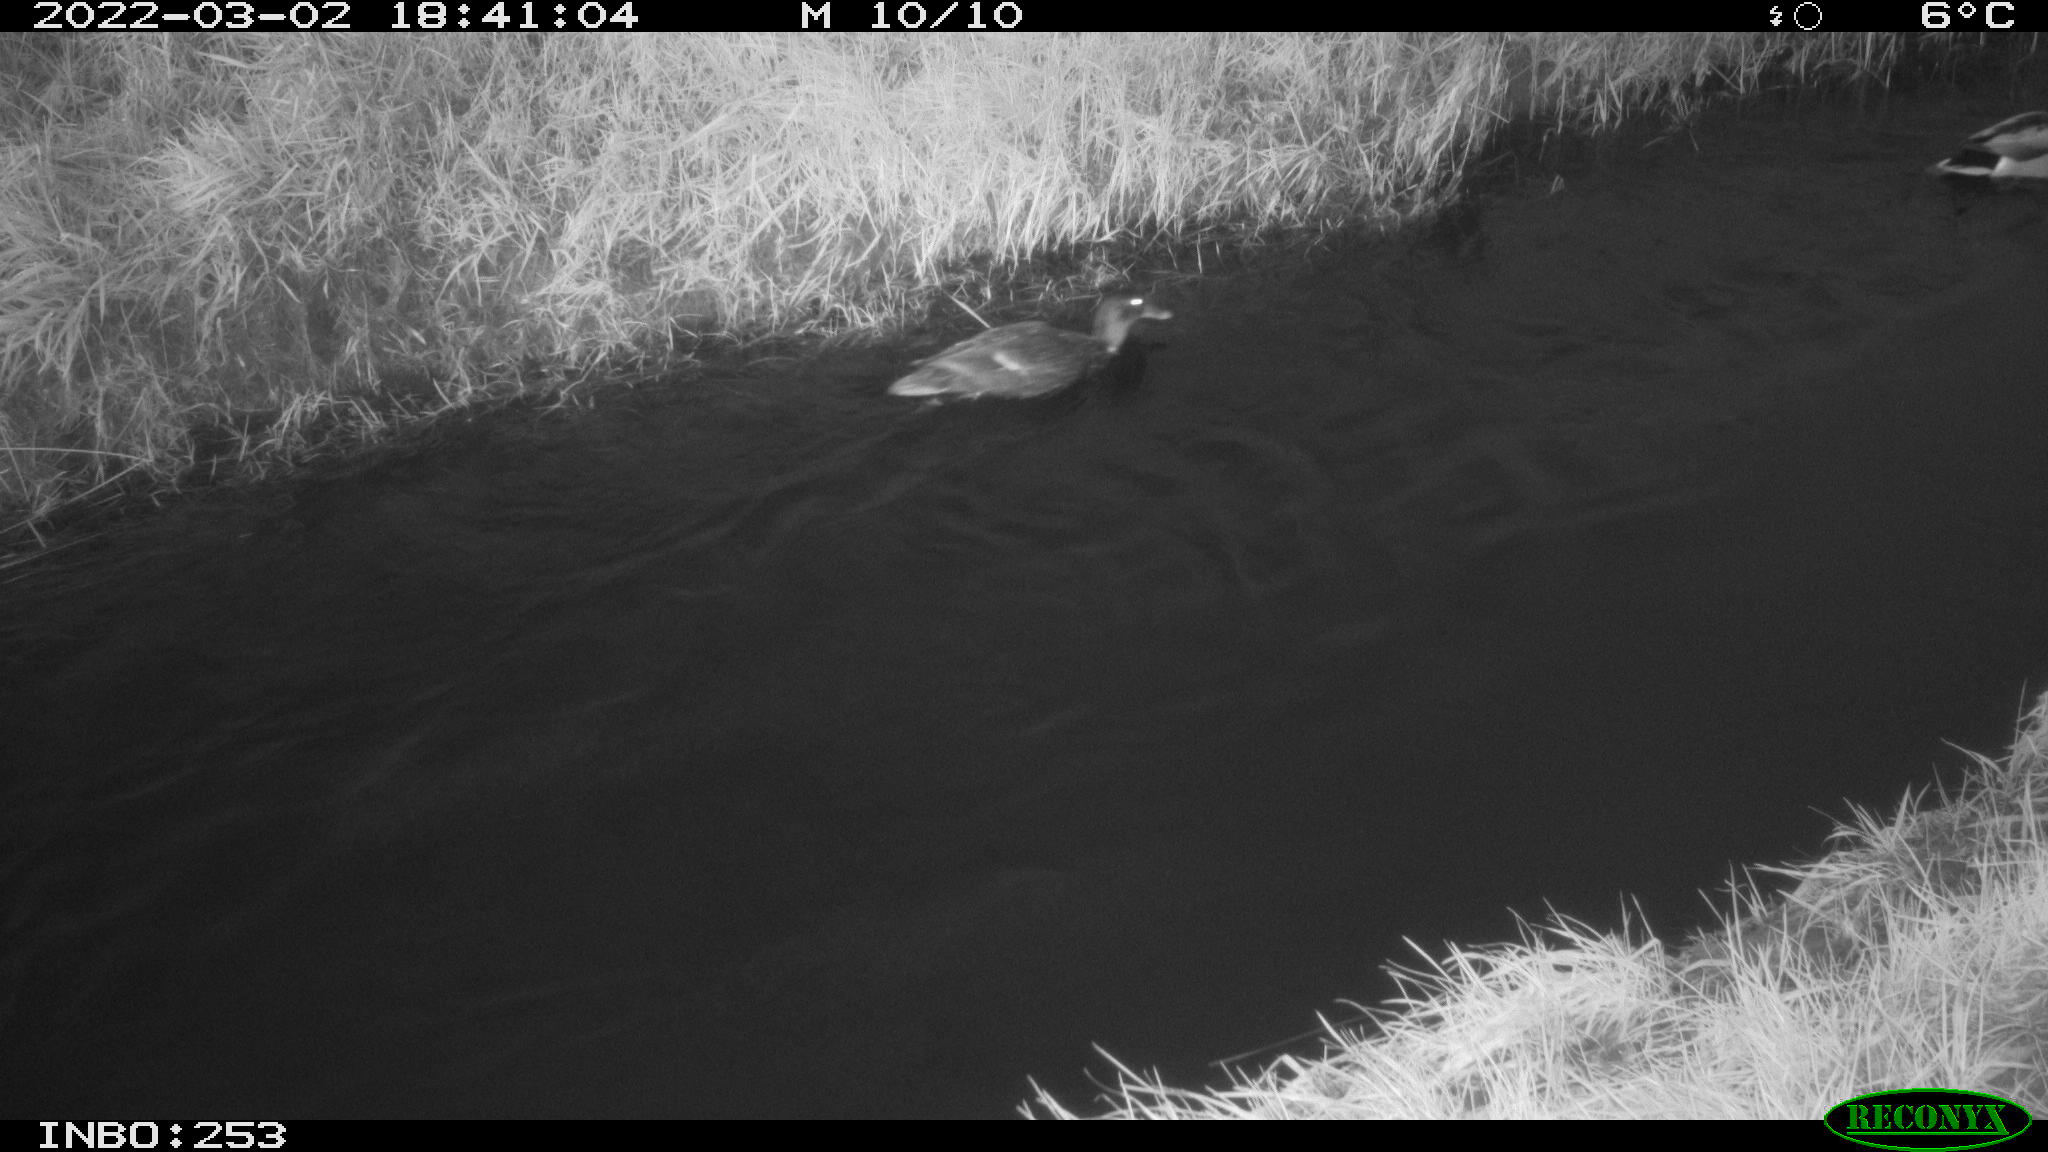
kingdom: Animalia
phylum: Chordata
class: Aves
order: Anseriformes
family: Anatidae
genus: Anas
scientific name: Anas platyrhynchos
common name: Mallard
